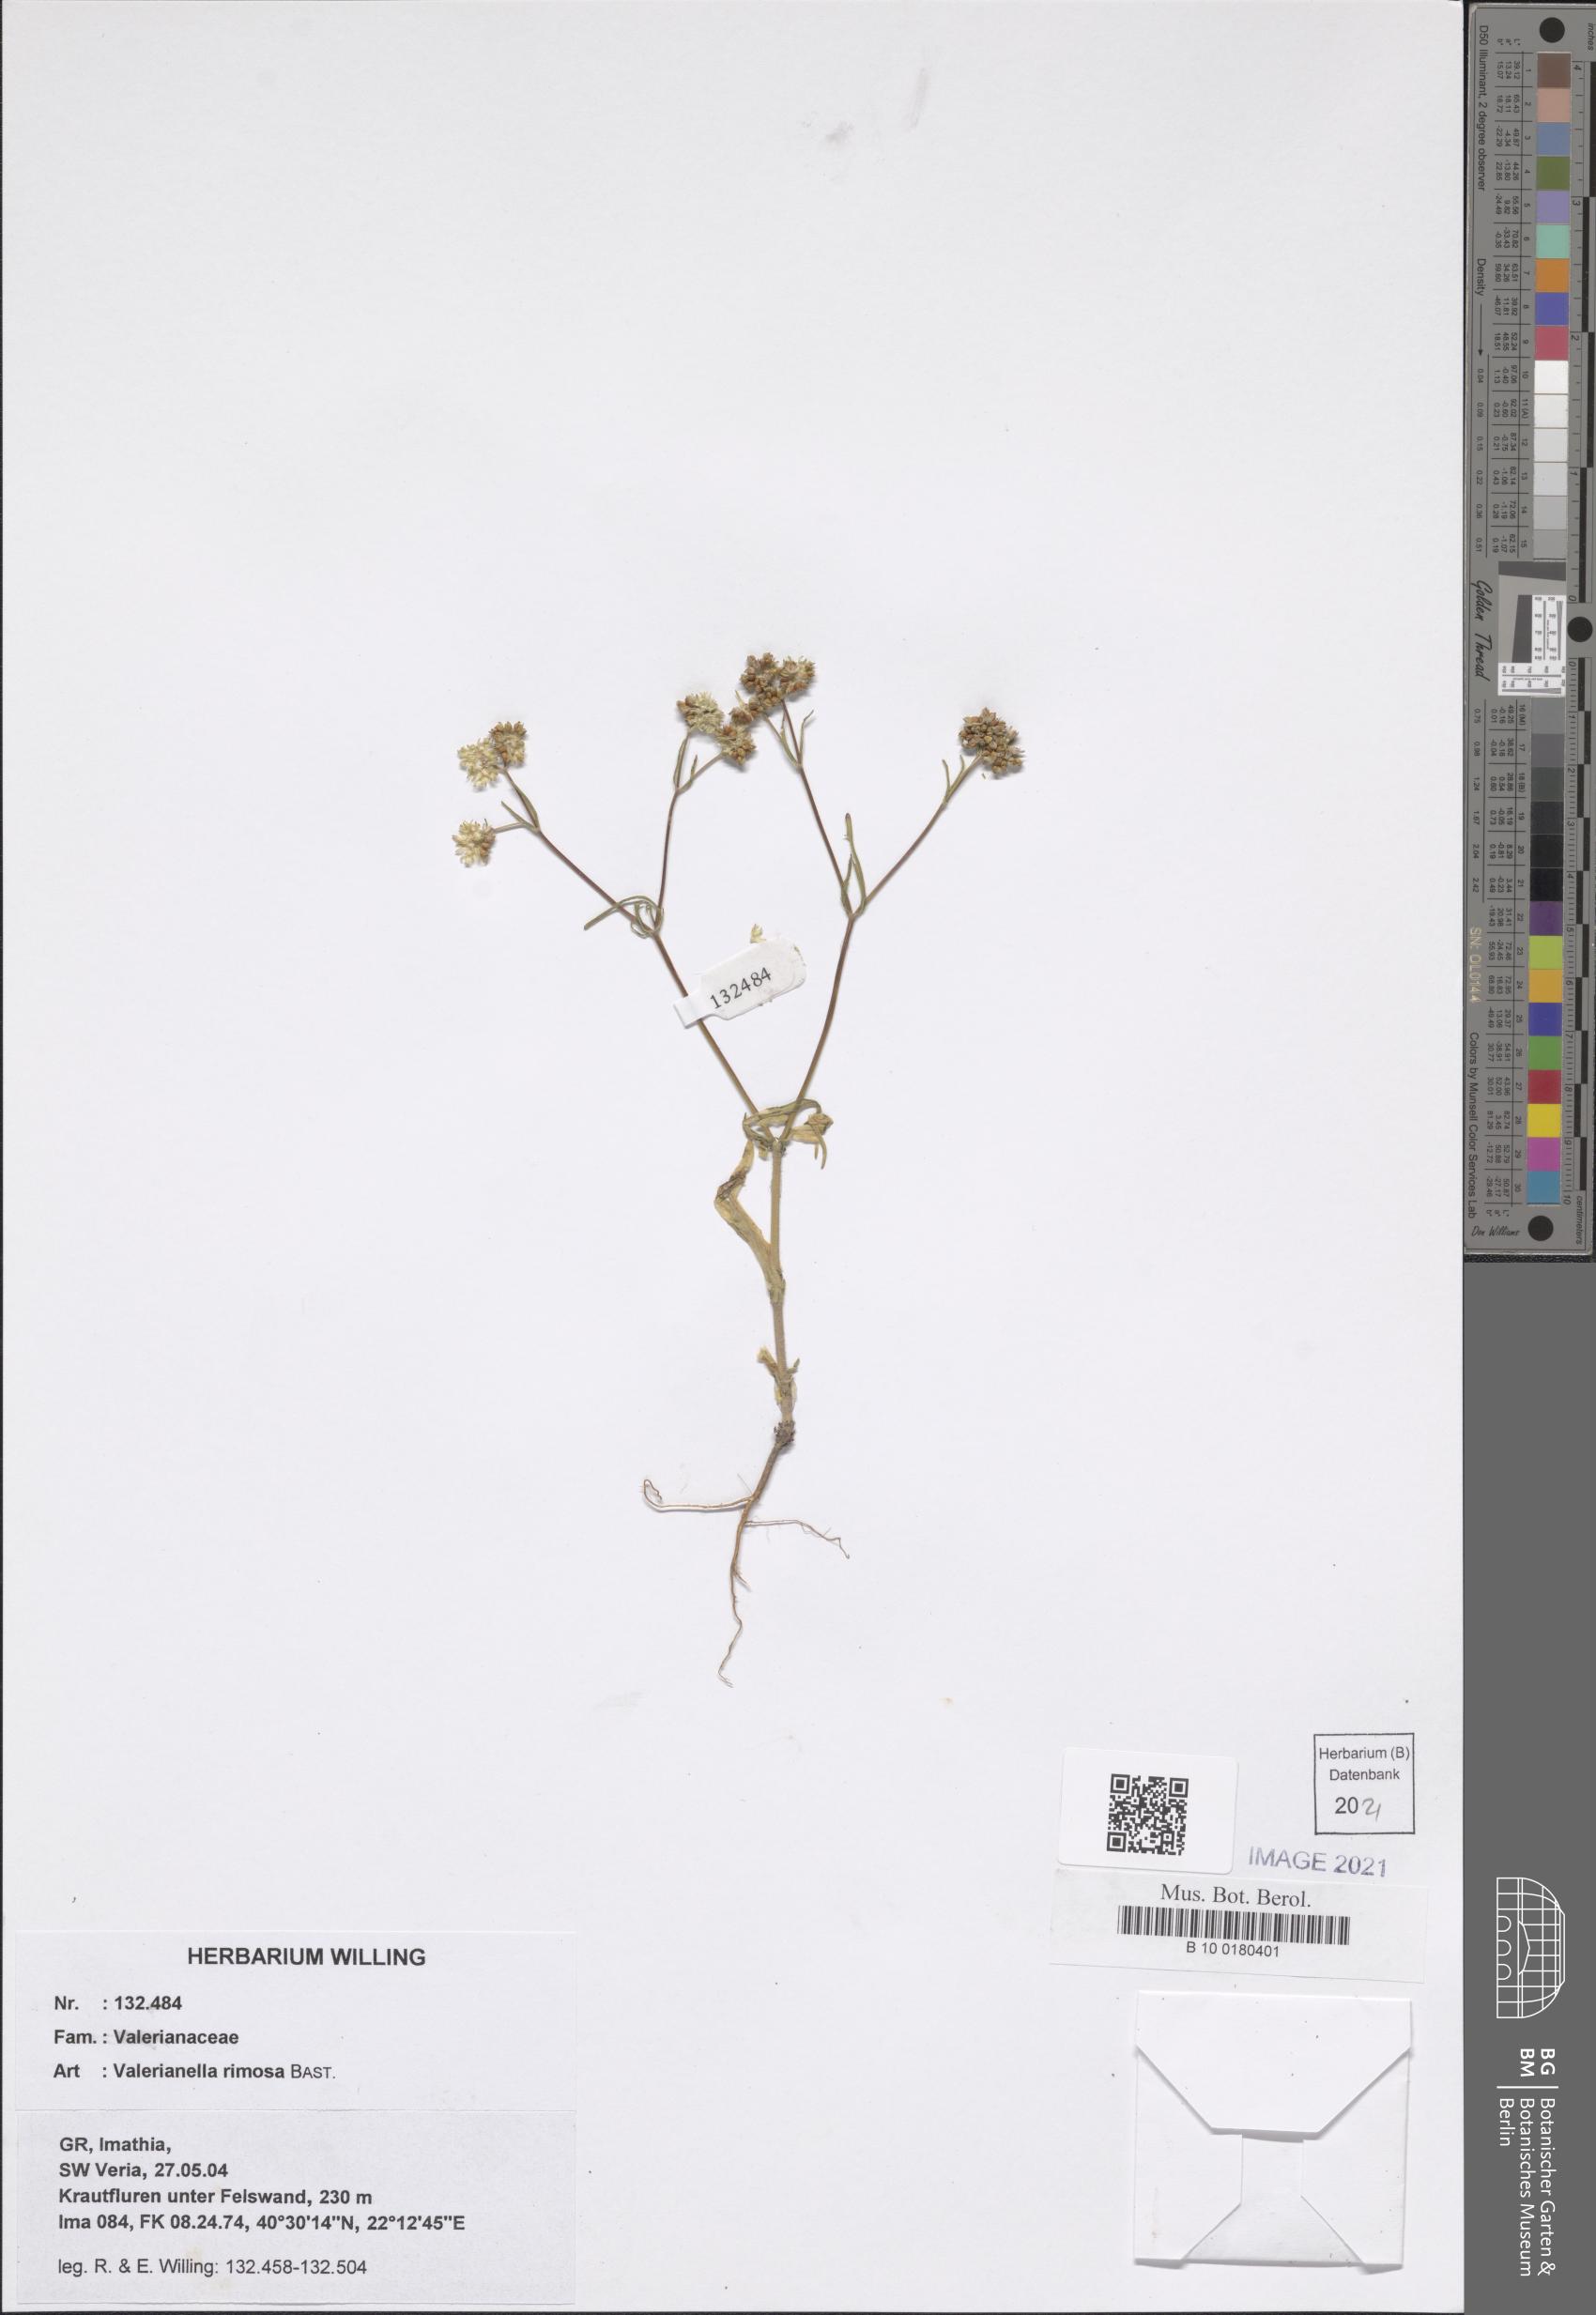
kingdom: Plantae
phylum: Tracheophyta
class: Magnoliopsida
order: Dipsacales
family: Caprifoliaceae
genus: Valerianella
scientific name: Valerianella rimosa
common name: Broad-fruited cornsalad
